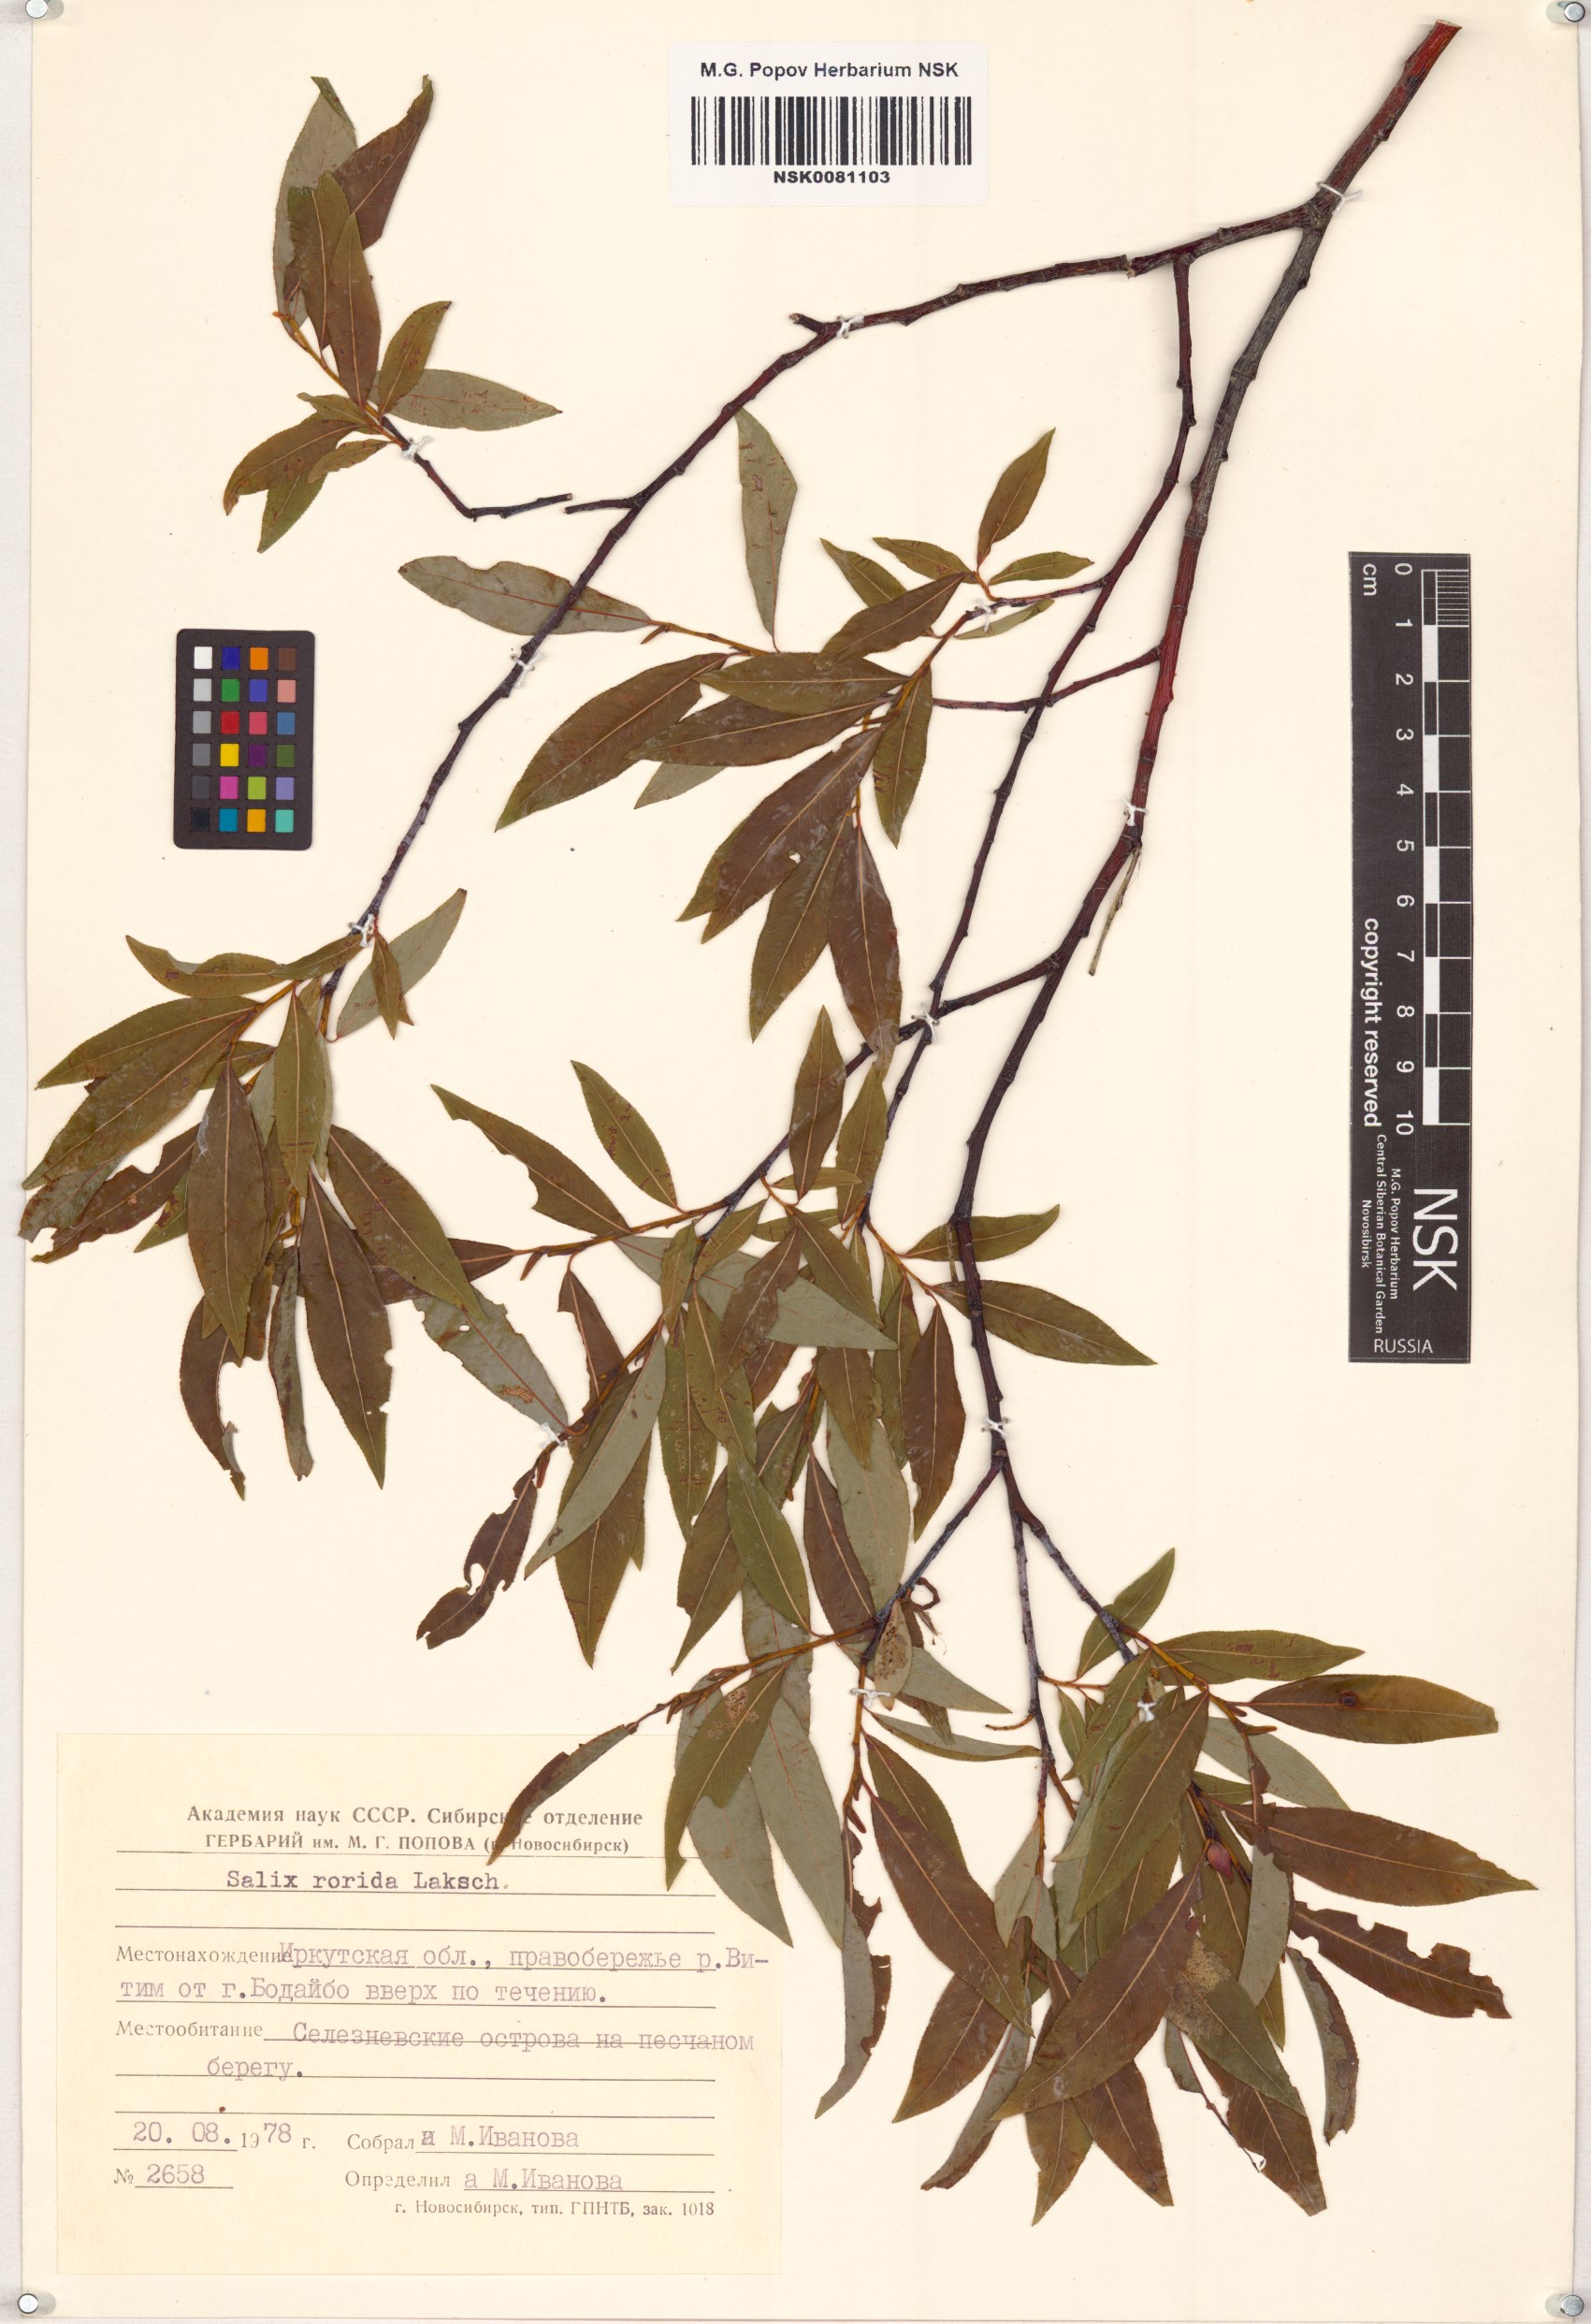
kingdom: Plantae
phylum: Tracheophyta
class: Magnoliopsida
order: Malpighiales
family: Salicaceae
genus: Salix
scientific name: Salix rorida
